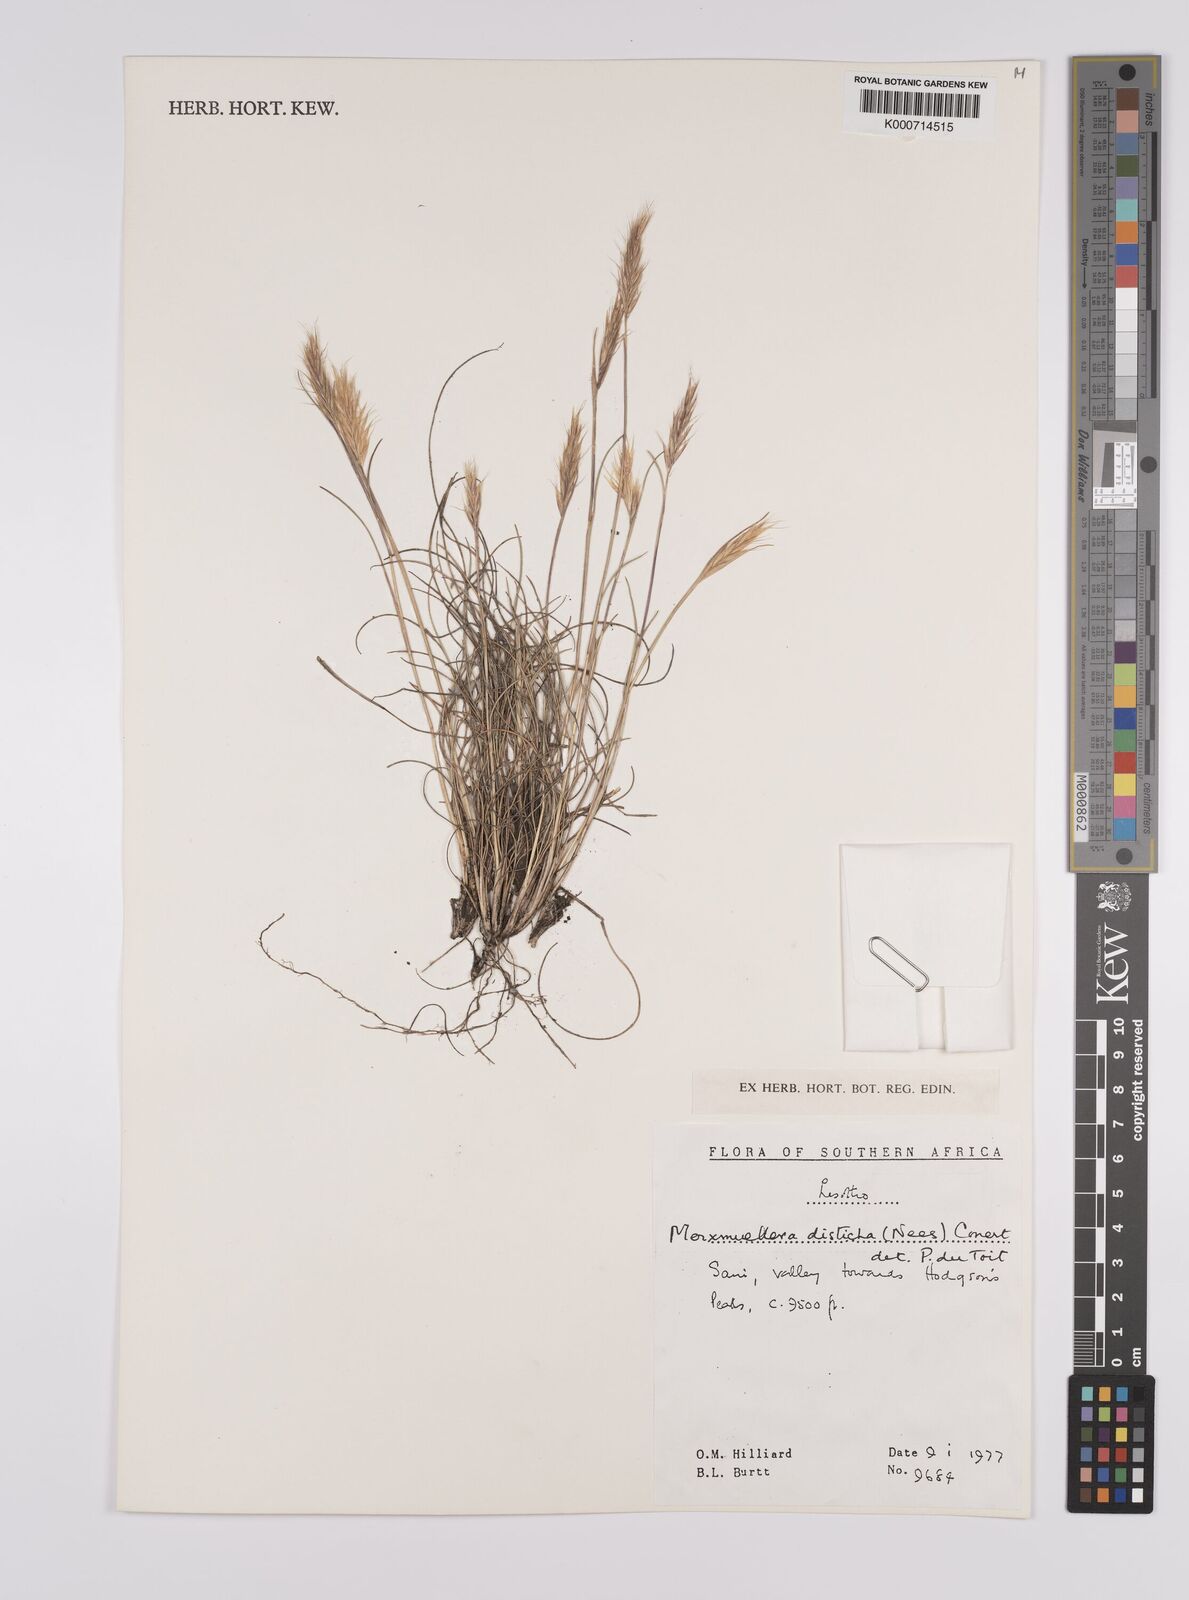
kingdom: Plantae
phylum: Tracheophyta
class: Liliopsida
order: Poales
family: Poaceae
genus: Tenaxia
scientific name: Tenaxia disticha
